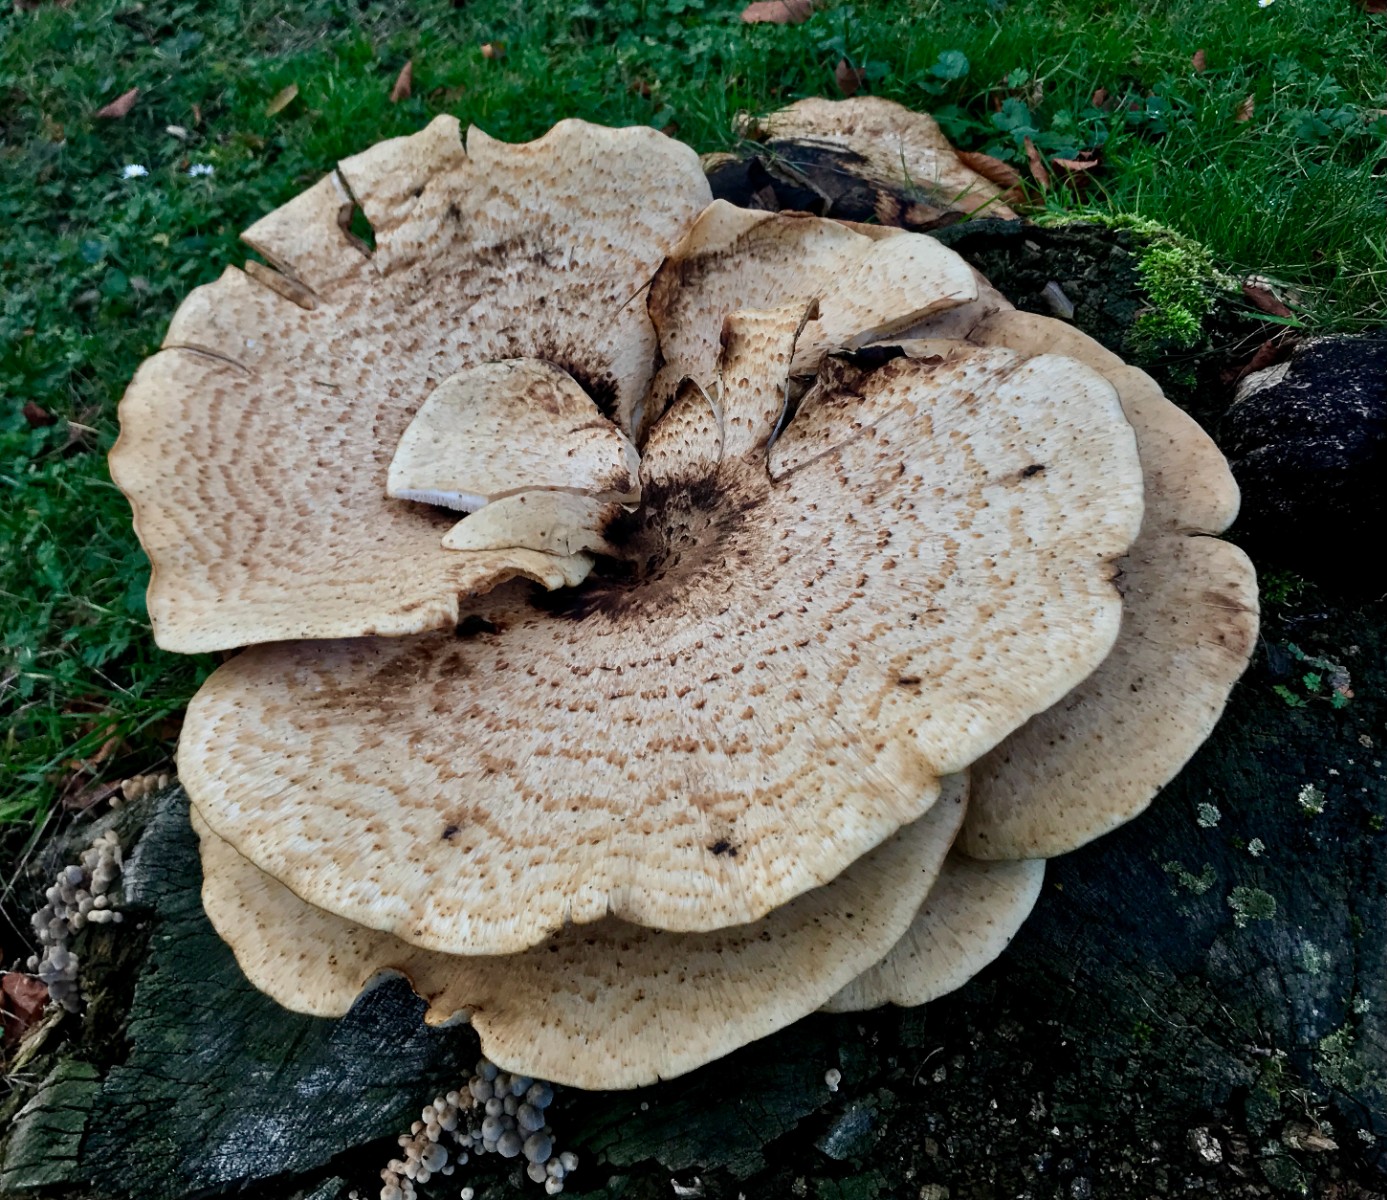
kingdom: Fungi
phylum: Basidiomycota
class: Agaricomycetes
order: Polyporales
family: Polyporaceae
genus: Cerioporus
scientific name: Cerioporus squamosus
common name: skællet stilkporesvamp
